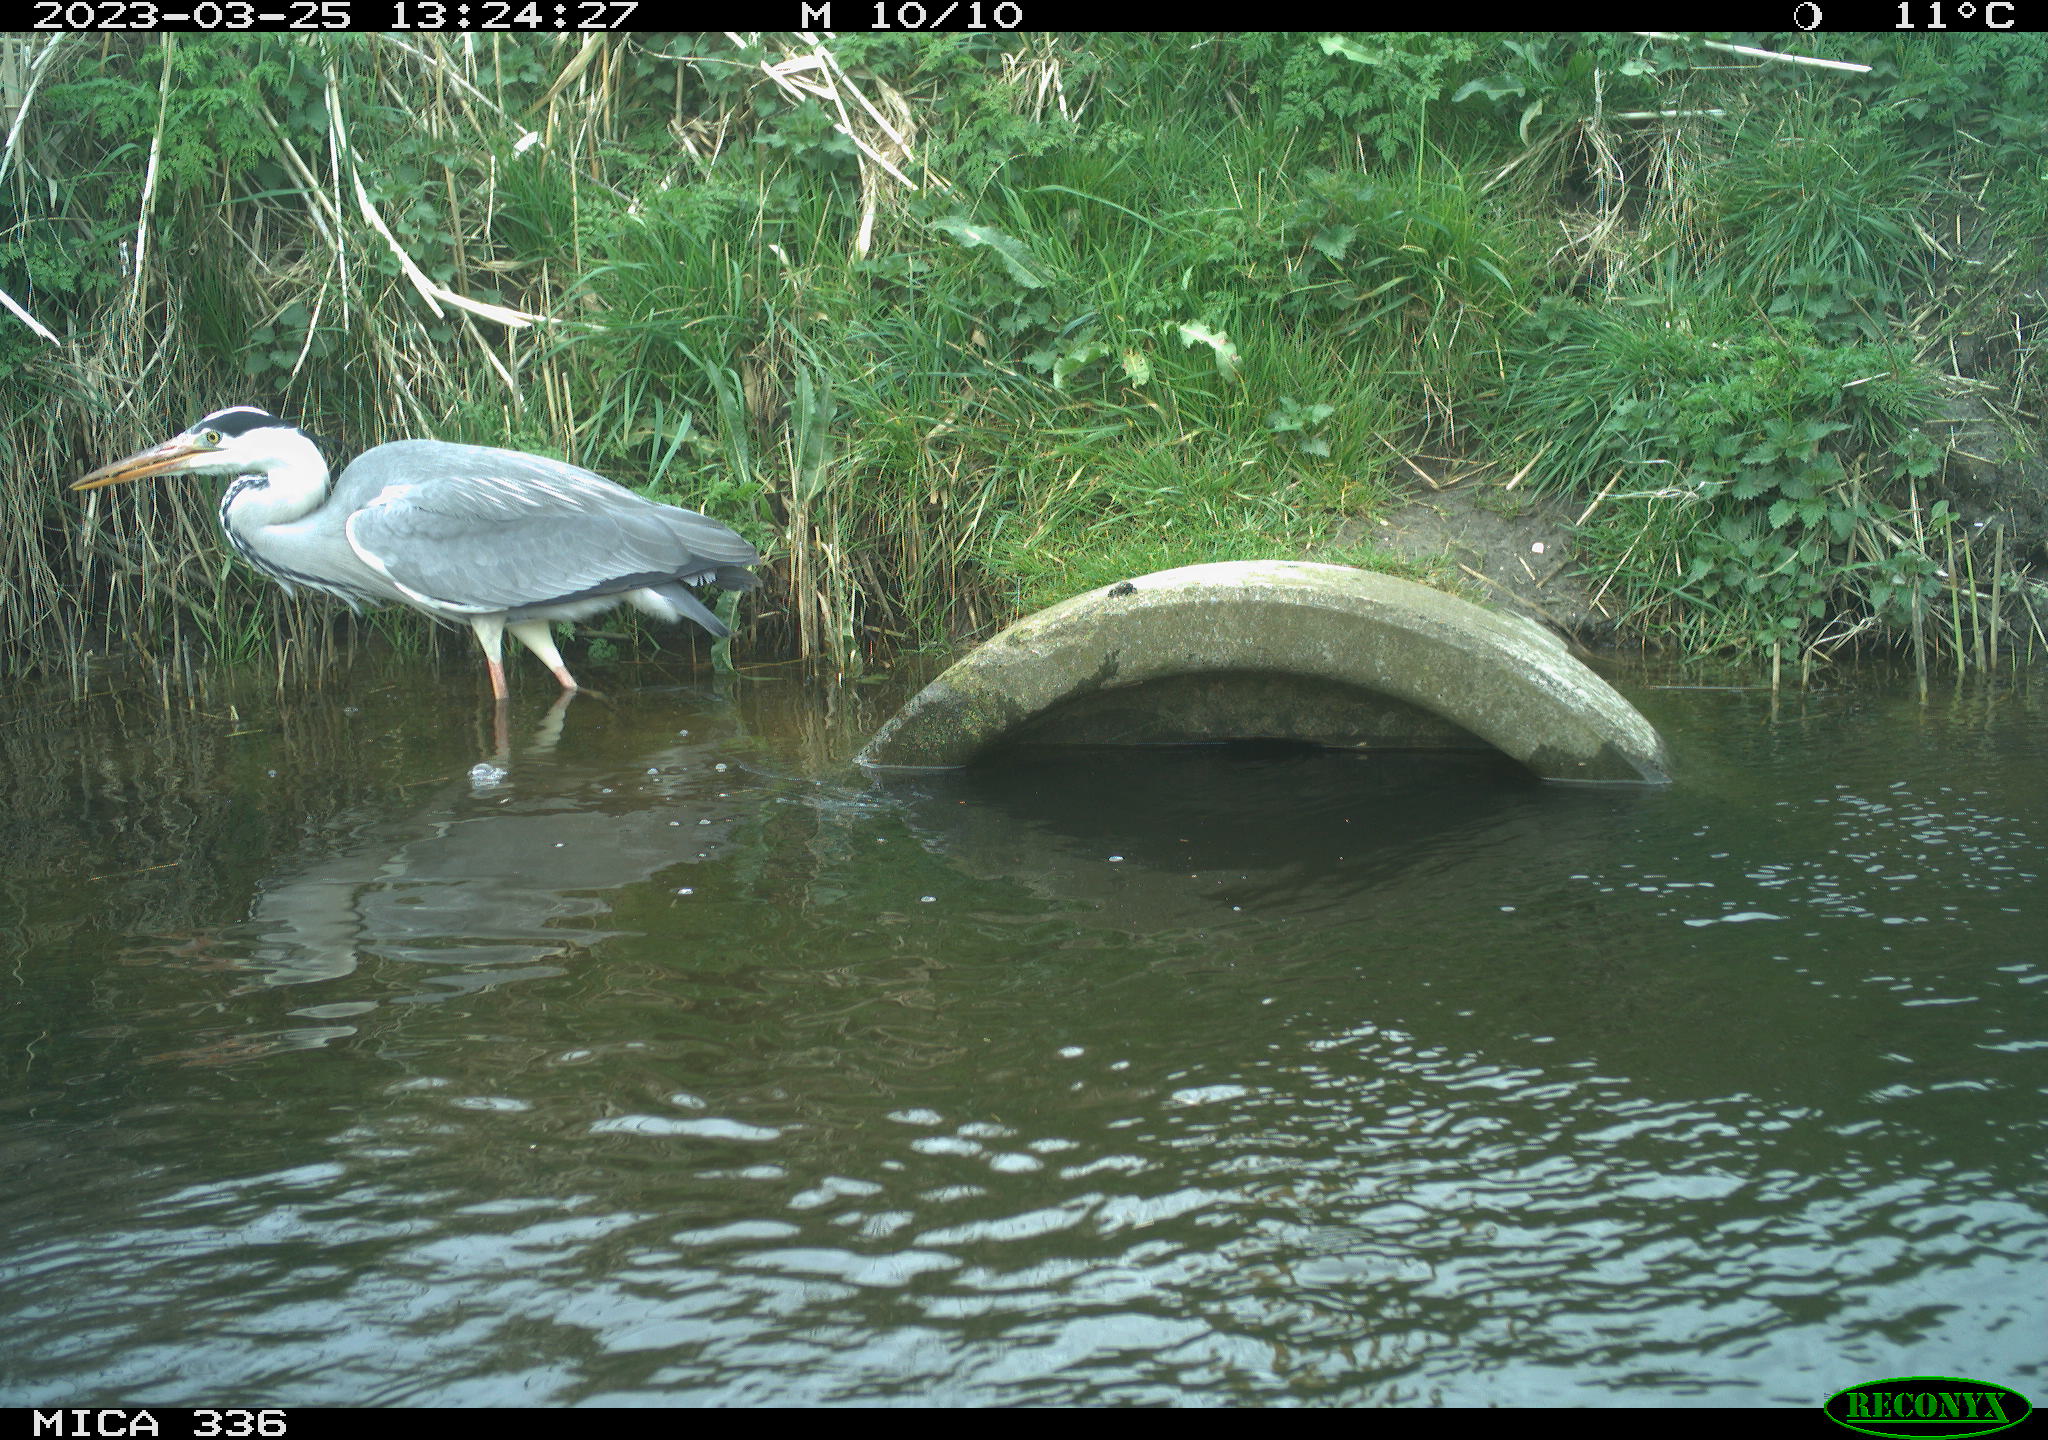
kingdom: Animalia
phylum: Chordata
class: Aves
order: Pelecaniformes
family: Ardeidae
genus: Ardea
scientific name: Ardea
